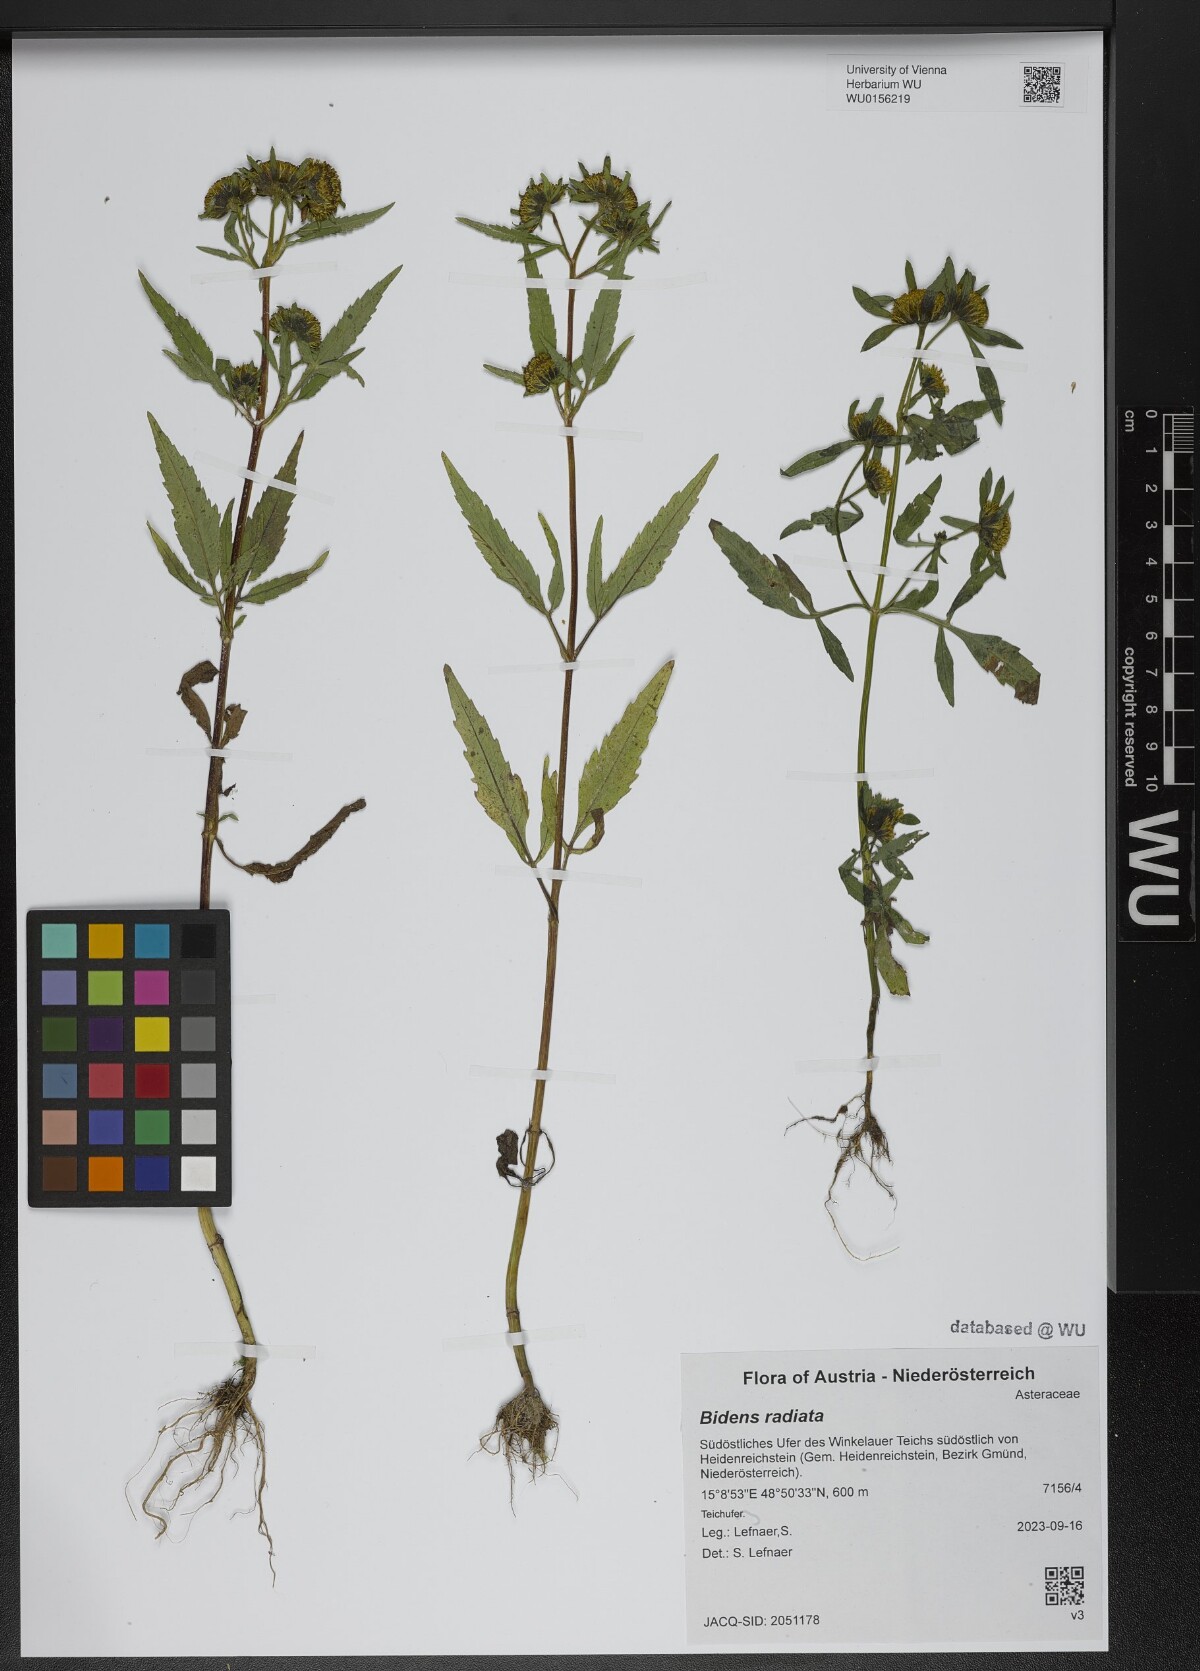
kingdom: Plantae
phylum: Tracheophyta
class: Magnoliopsida
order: Asterales
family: Asteraceae
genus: Bidens
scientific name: Bidens radiata
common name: Radiating bur-marigold
